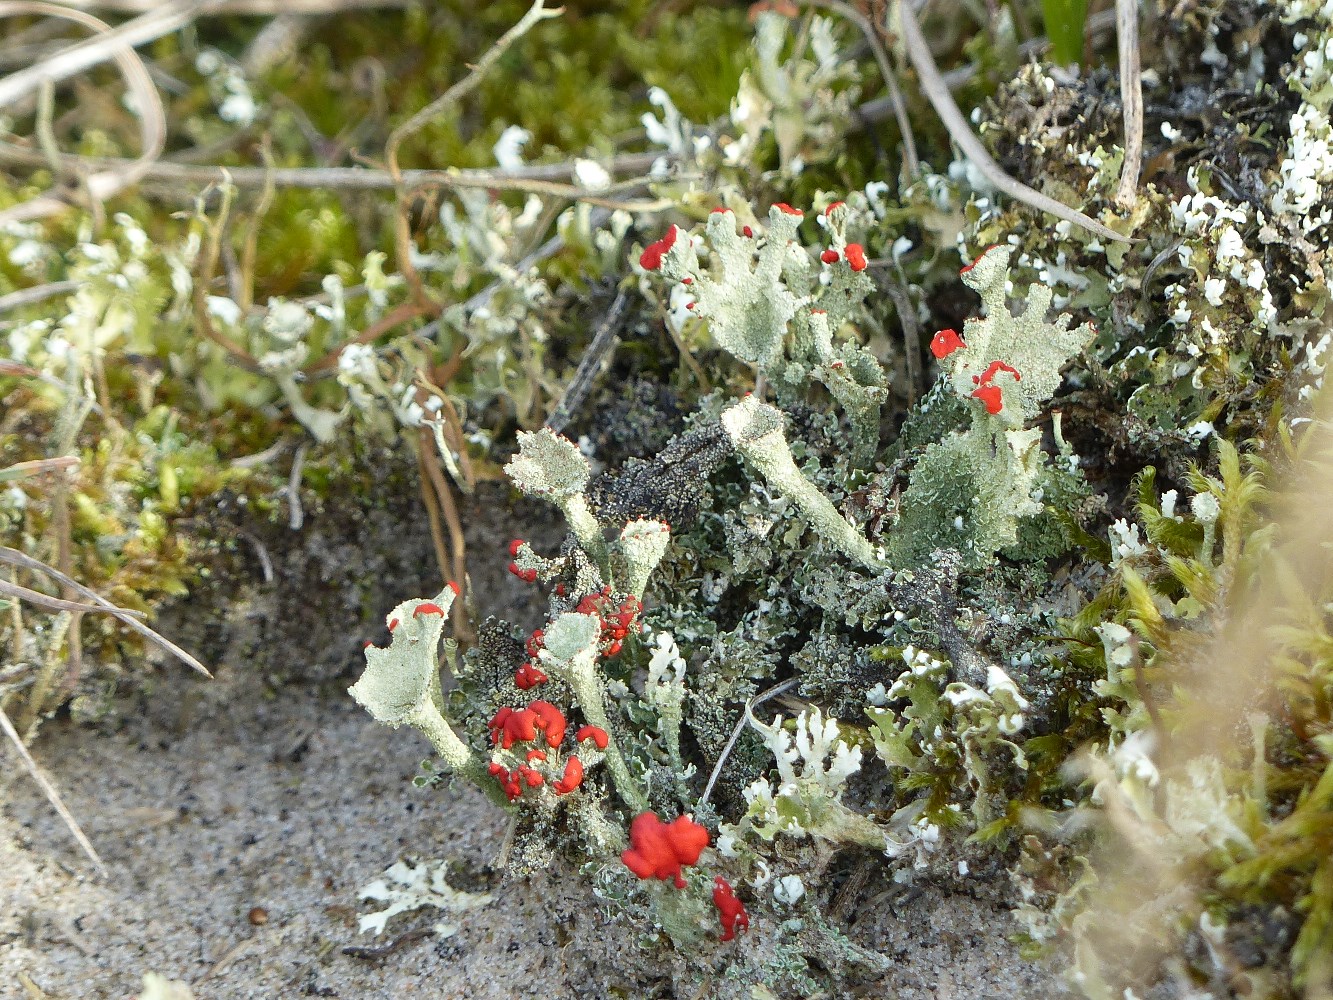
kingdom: Fungi
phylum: Ascomycota
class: Lecanoromycetes
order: Lecanorales
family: Cladoniaceae
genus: Cladonia
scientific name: Cladonia diversa
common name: rød bægerlav
